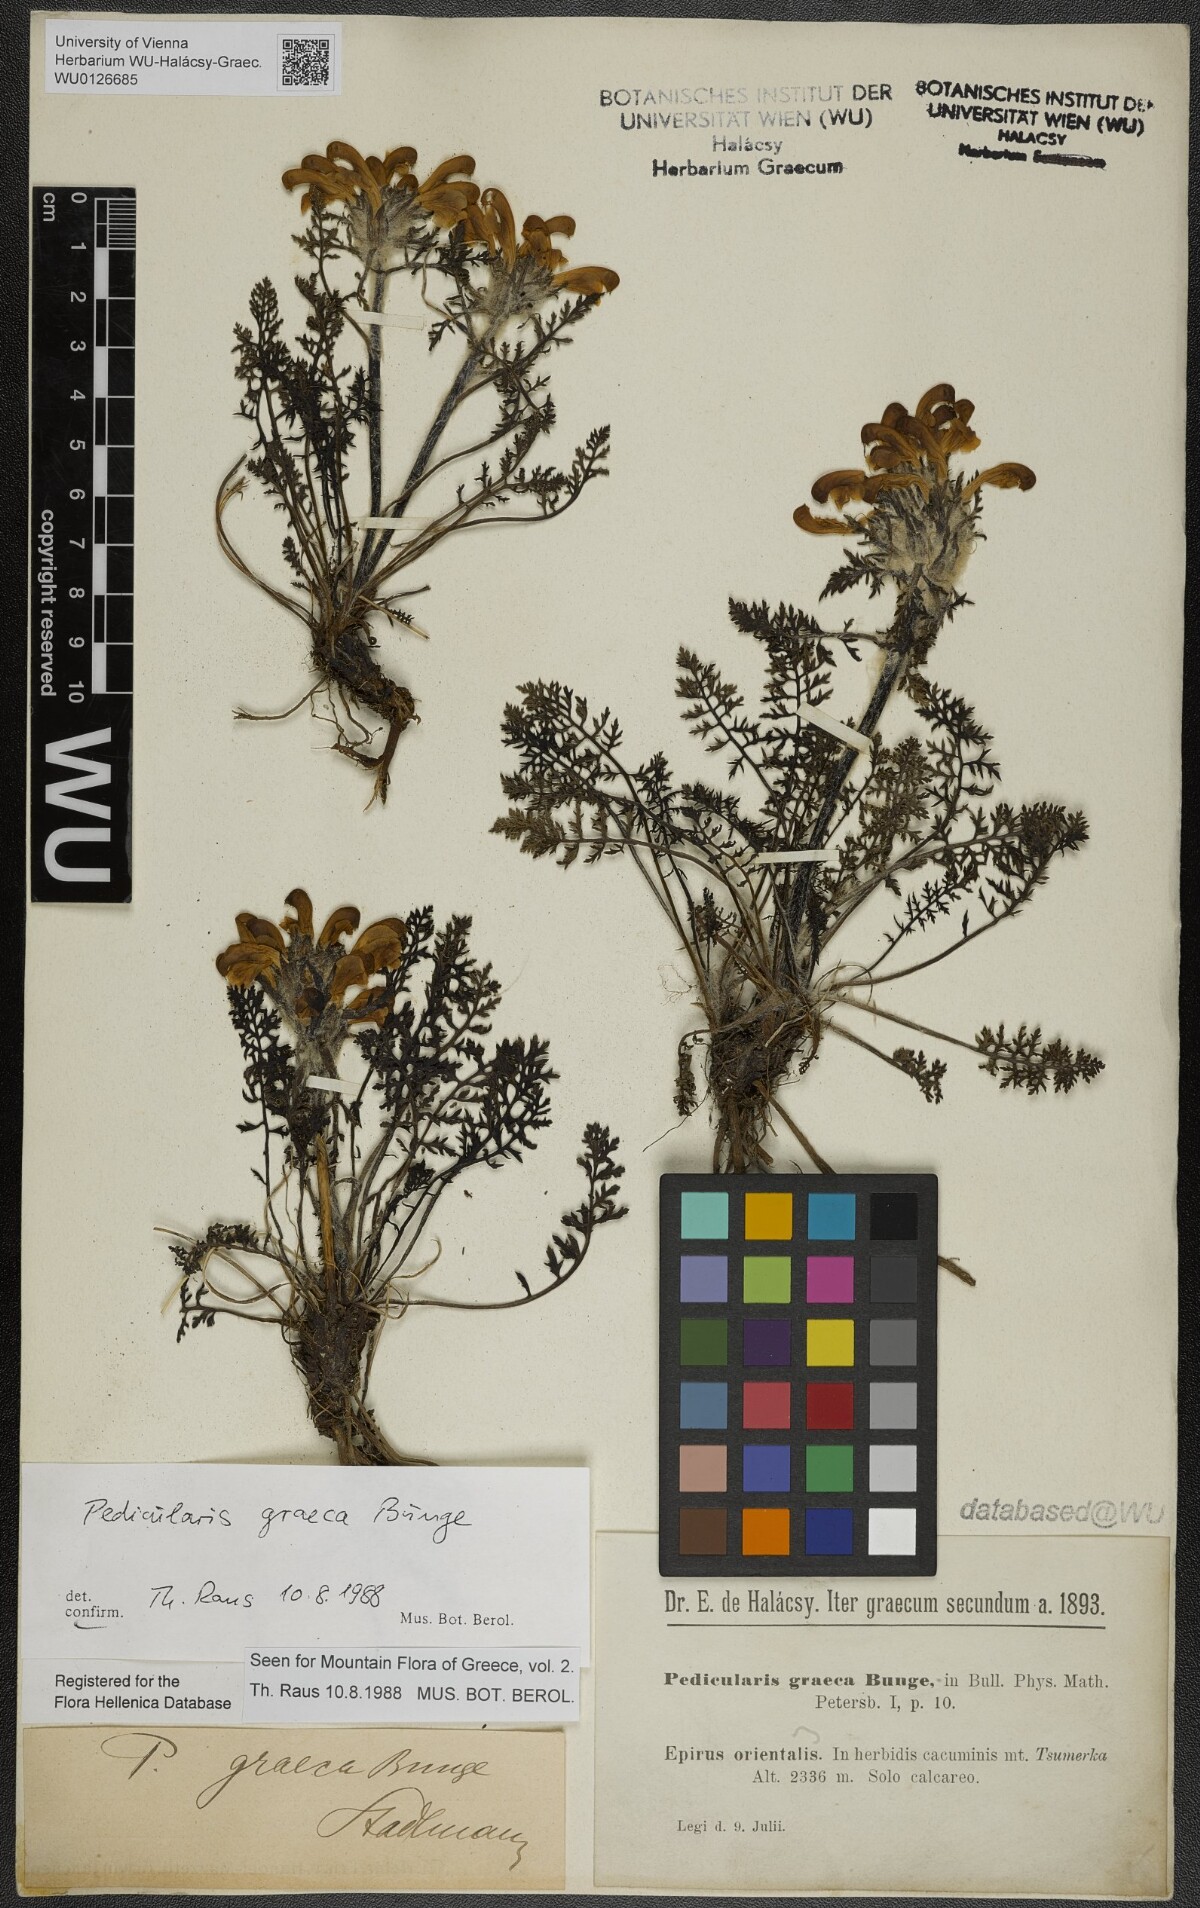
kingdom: Plantae
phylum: Tracheophyta
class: Magnoliopsida
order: Lamiales
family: Orobanchaceae
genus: Pedicularis
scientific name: Pedicularis graeca
